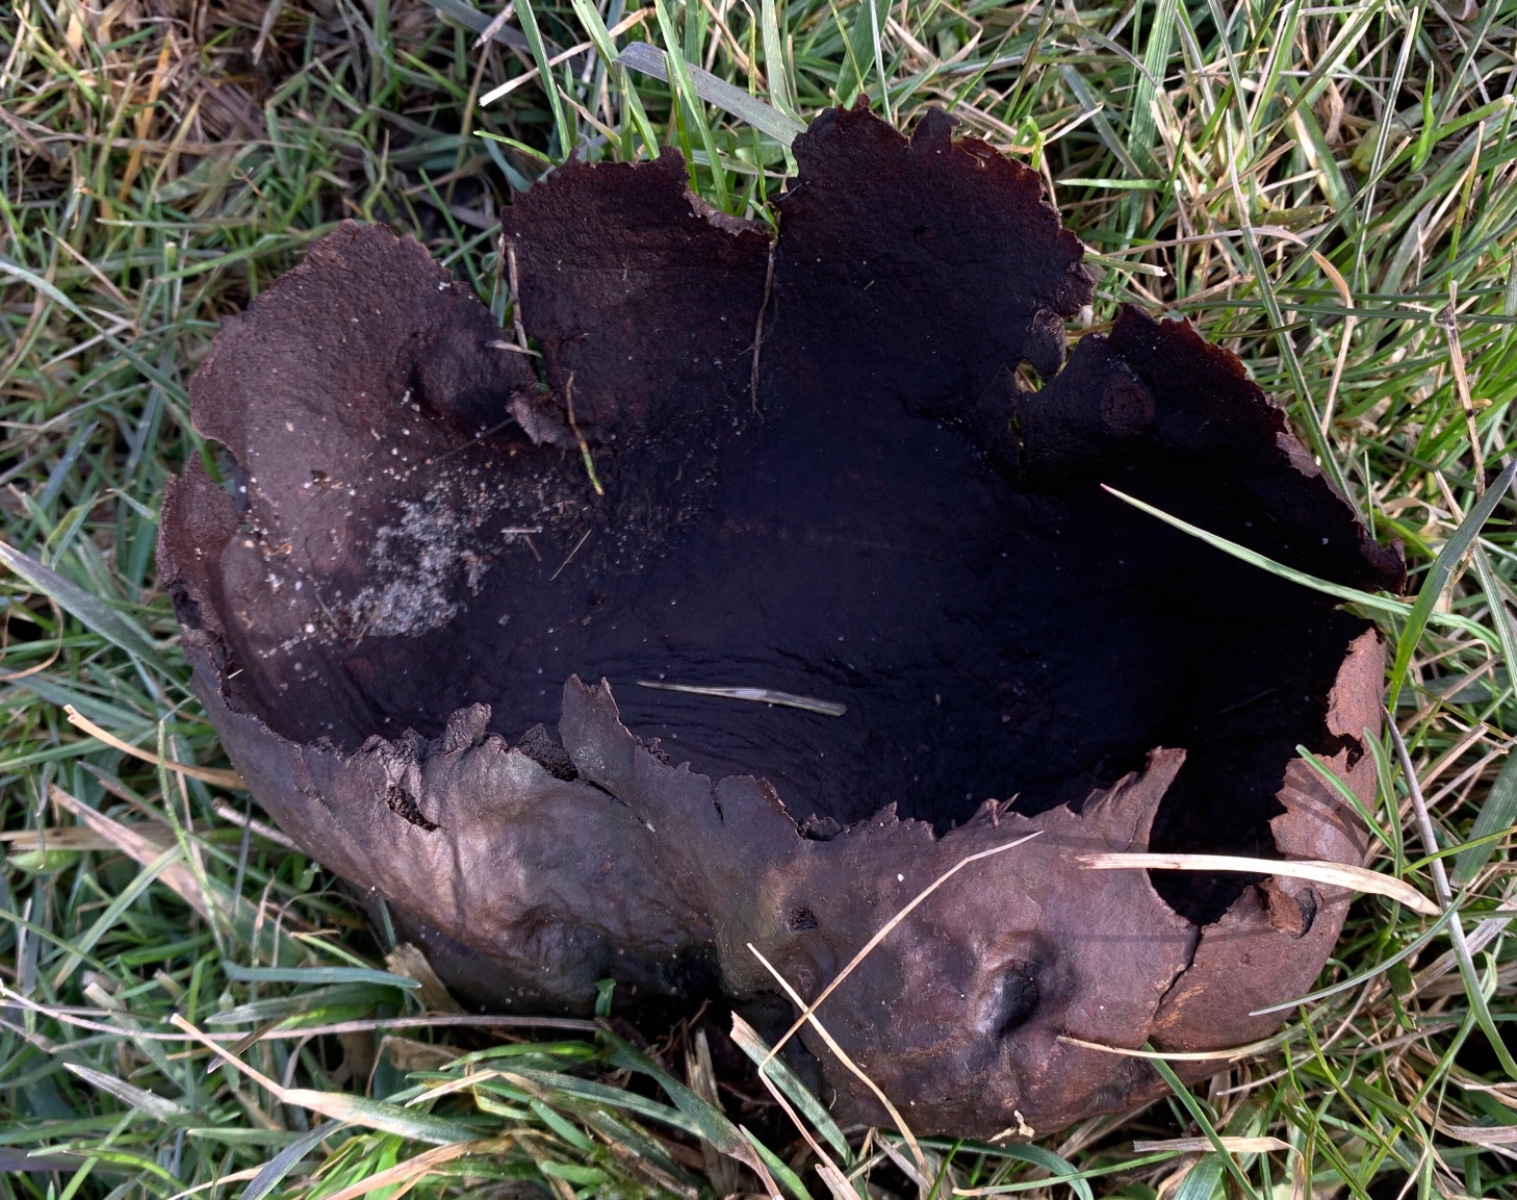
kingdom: Fungi
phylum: Basidiomycota
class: Agaricomycetes
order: Agaricales
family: Lycoperdaceae
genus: Bovistella
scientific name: Bovistella utriformis
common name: skællet støvbold
